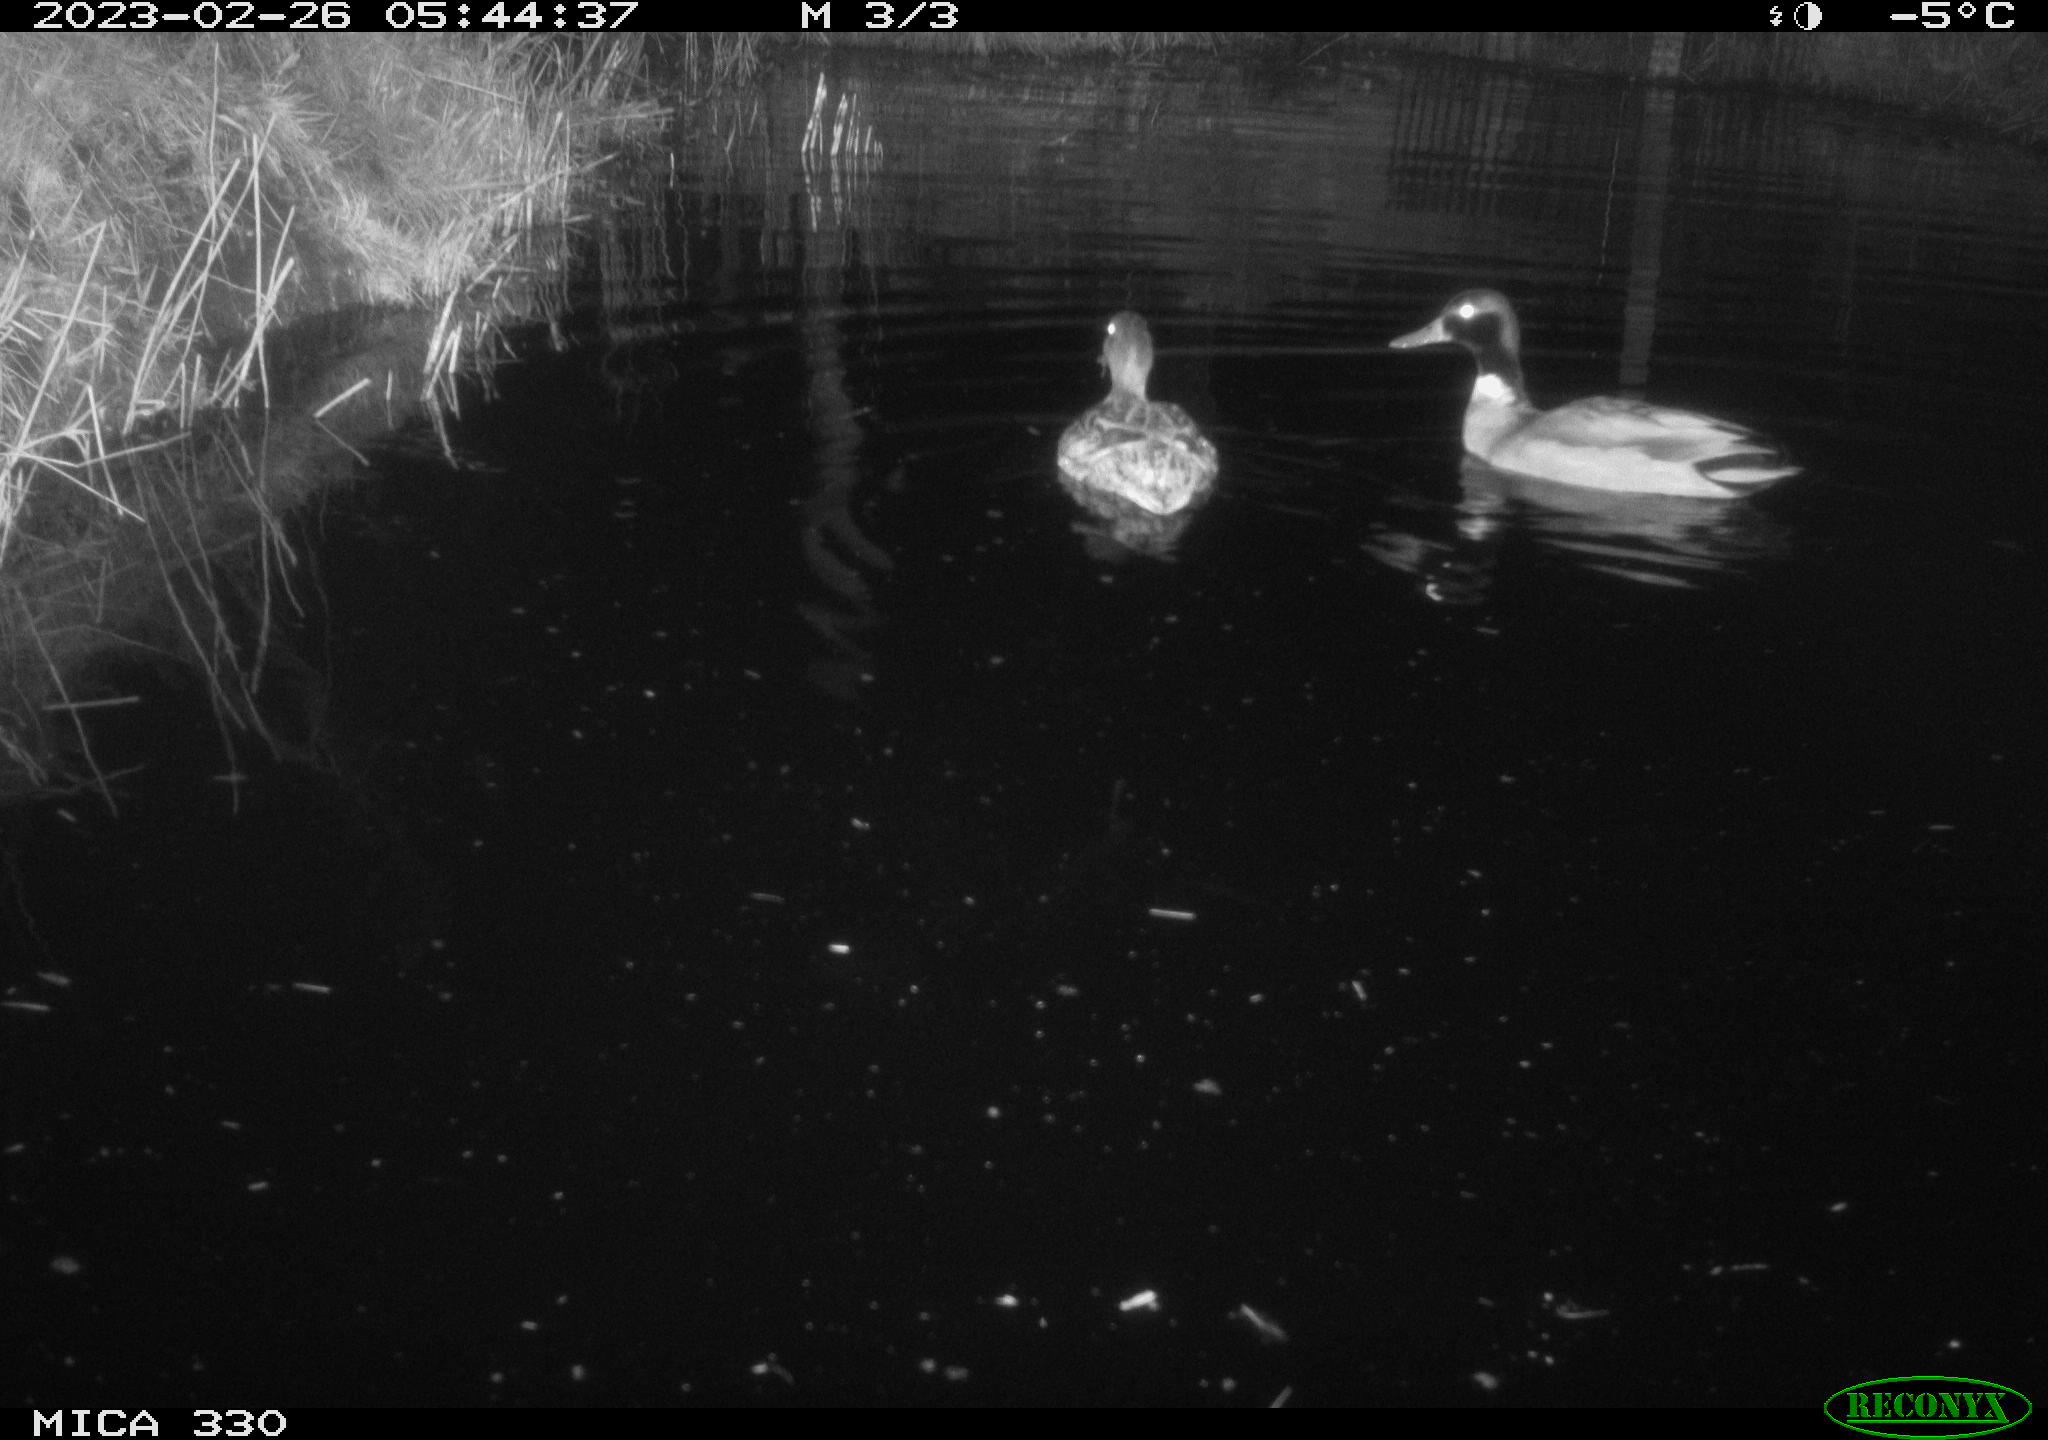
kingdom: Animalia
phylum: Chordata
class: Aves
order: Anseriformes
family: Anatidae
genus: Anas
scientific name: Anas
